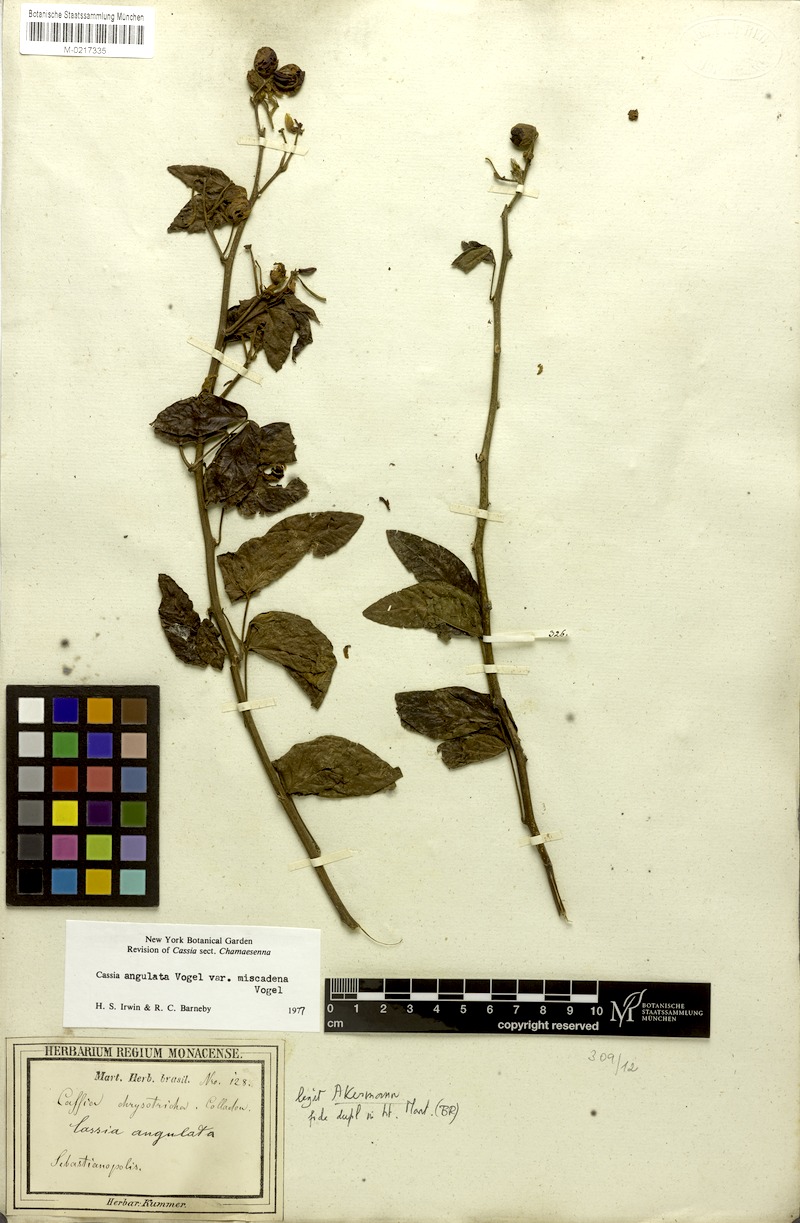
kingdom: Plantae
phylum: Tracheophyta
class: Magnoliopsida
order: Fabales
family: Fabaceae
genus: Senna
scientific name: Senna angulata
